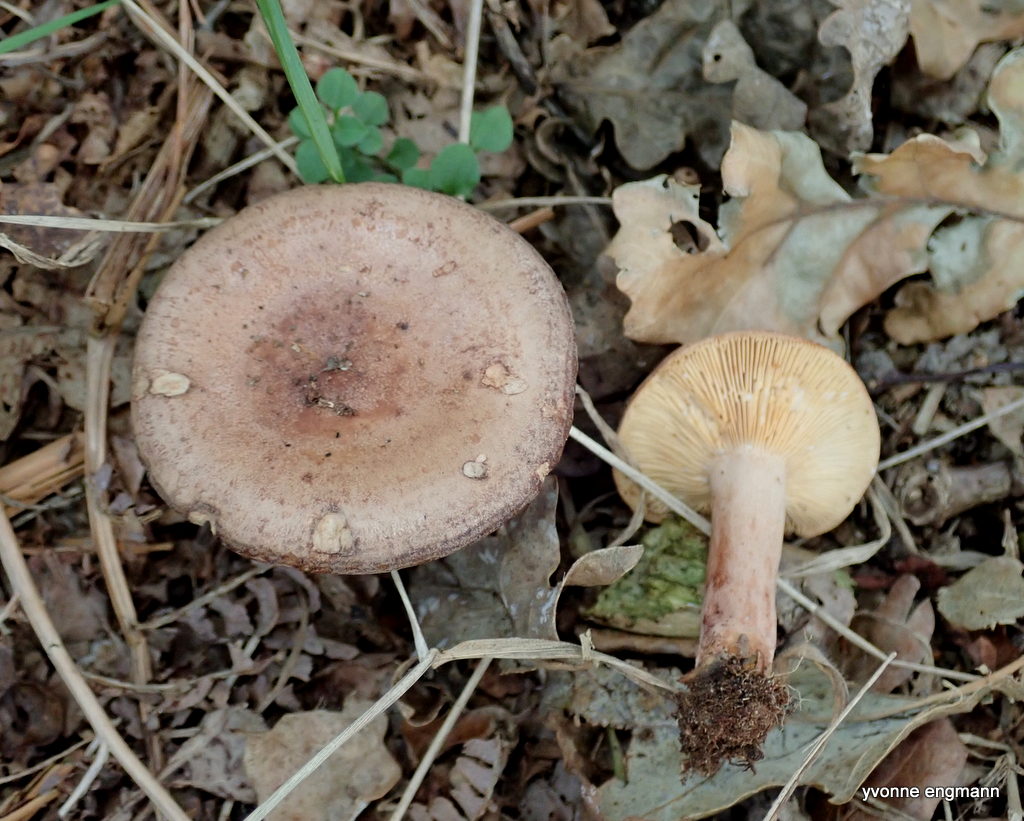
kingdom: Fungi
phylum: Basidiomycota
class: Agaricomycetes
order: Russulales
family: Russulaceae
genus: Lactarius
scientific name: Lactarius quietus
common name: ege-mælkehat
